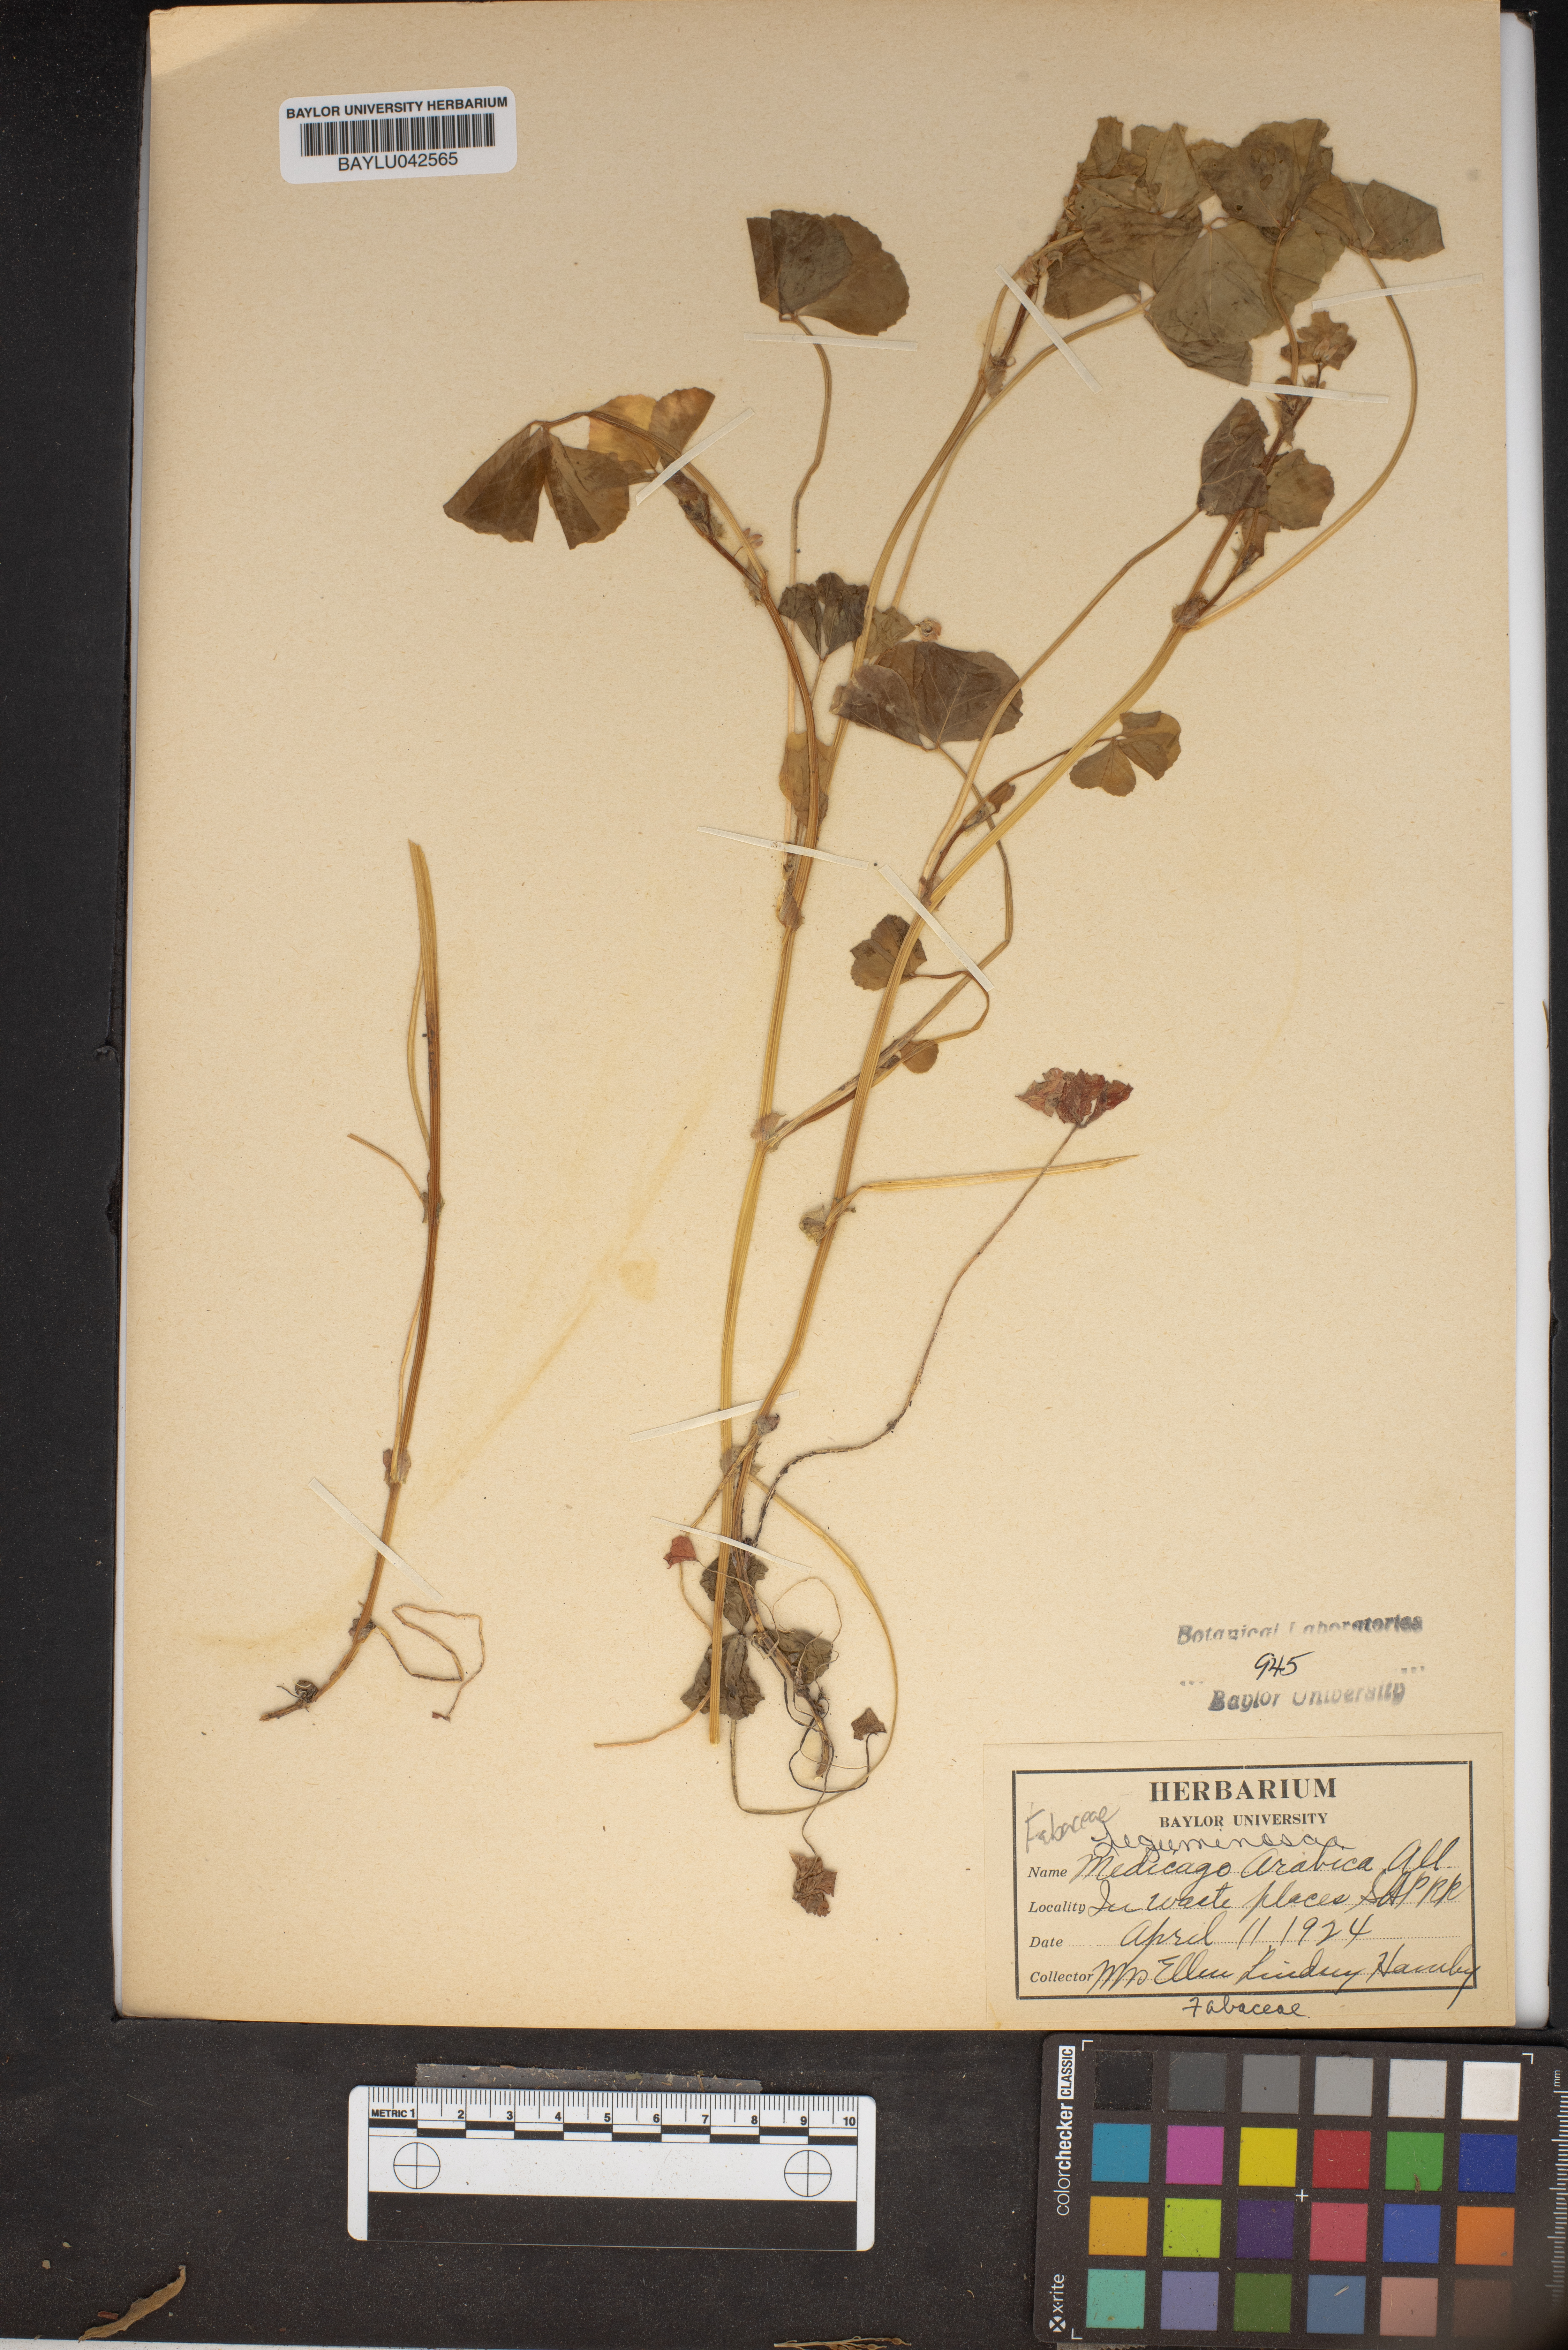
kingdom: Plantae
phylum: Tracheophyta
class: Magnoliopsida
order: Fabales
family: Fabaceae
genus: Medicago
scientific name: Medicago arabica
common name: Spotted medick
